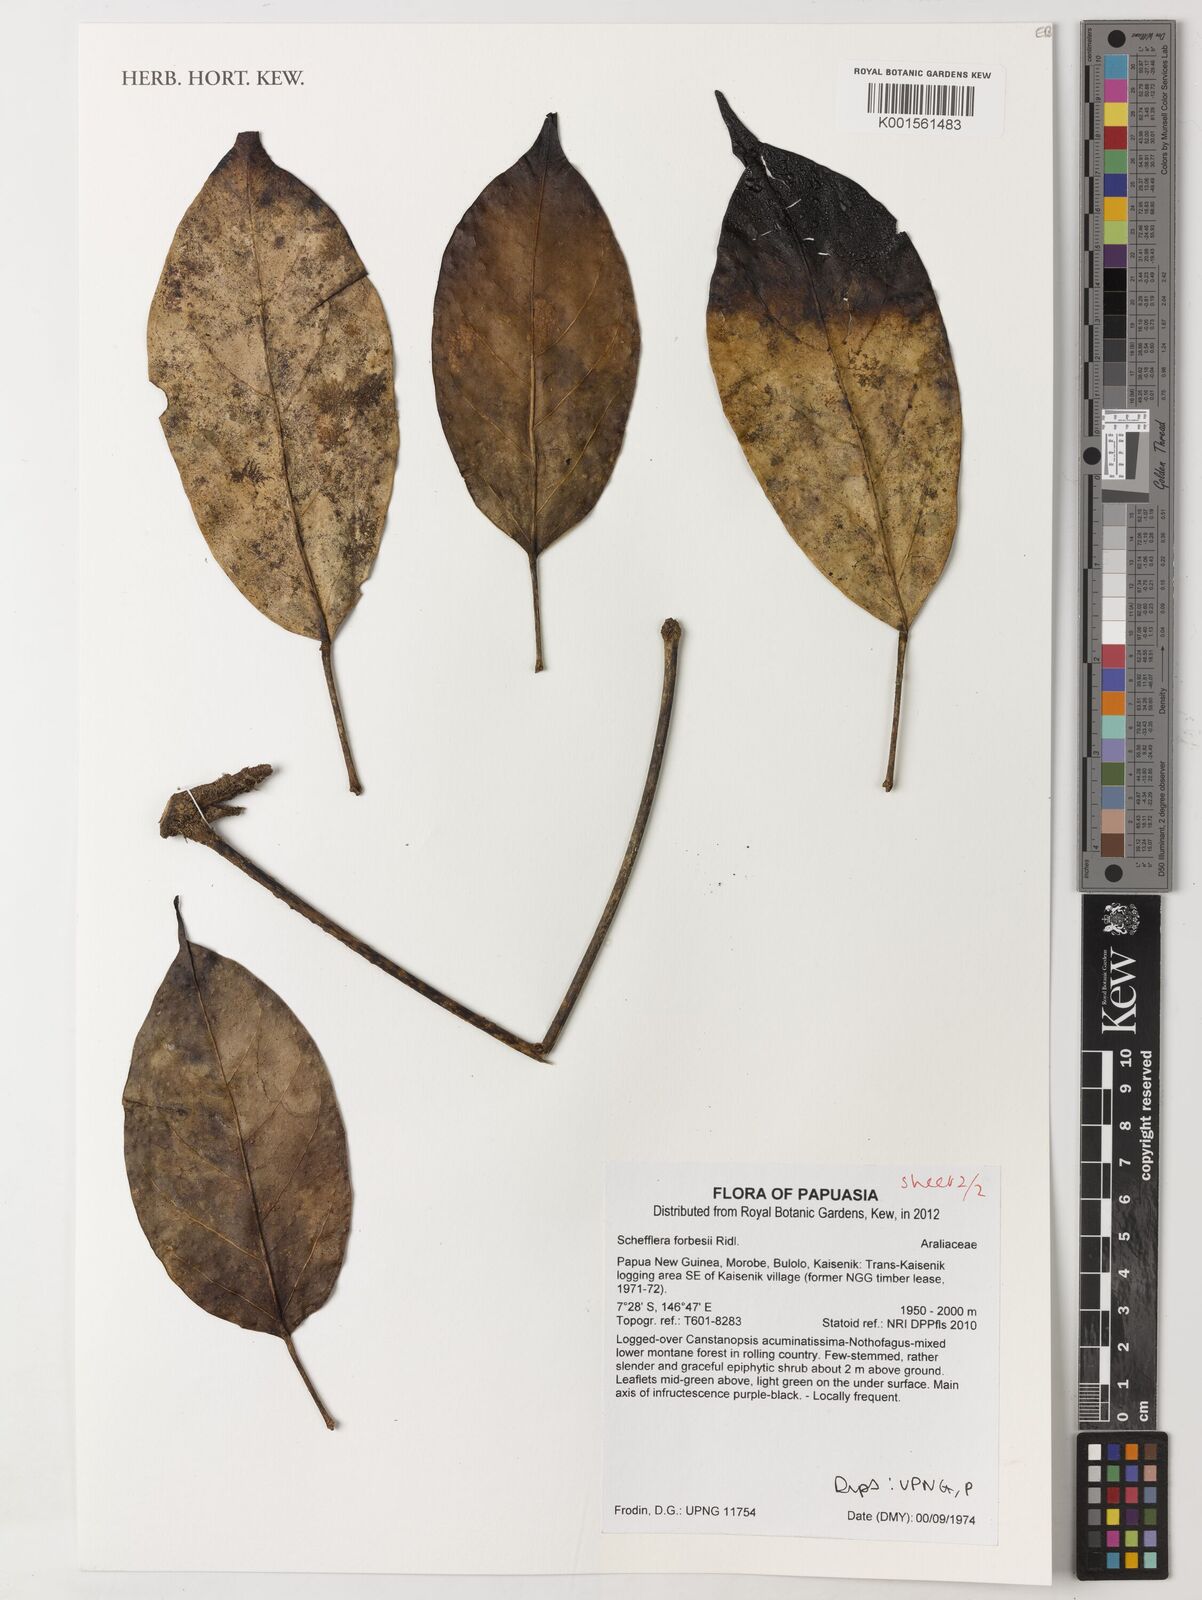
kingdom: Plantae
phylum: Tracheophyta
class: Magnoliopsida
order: Apiales
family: Araliaceae
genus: Heptapleurum
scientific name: Heptapleurum forbesii
